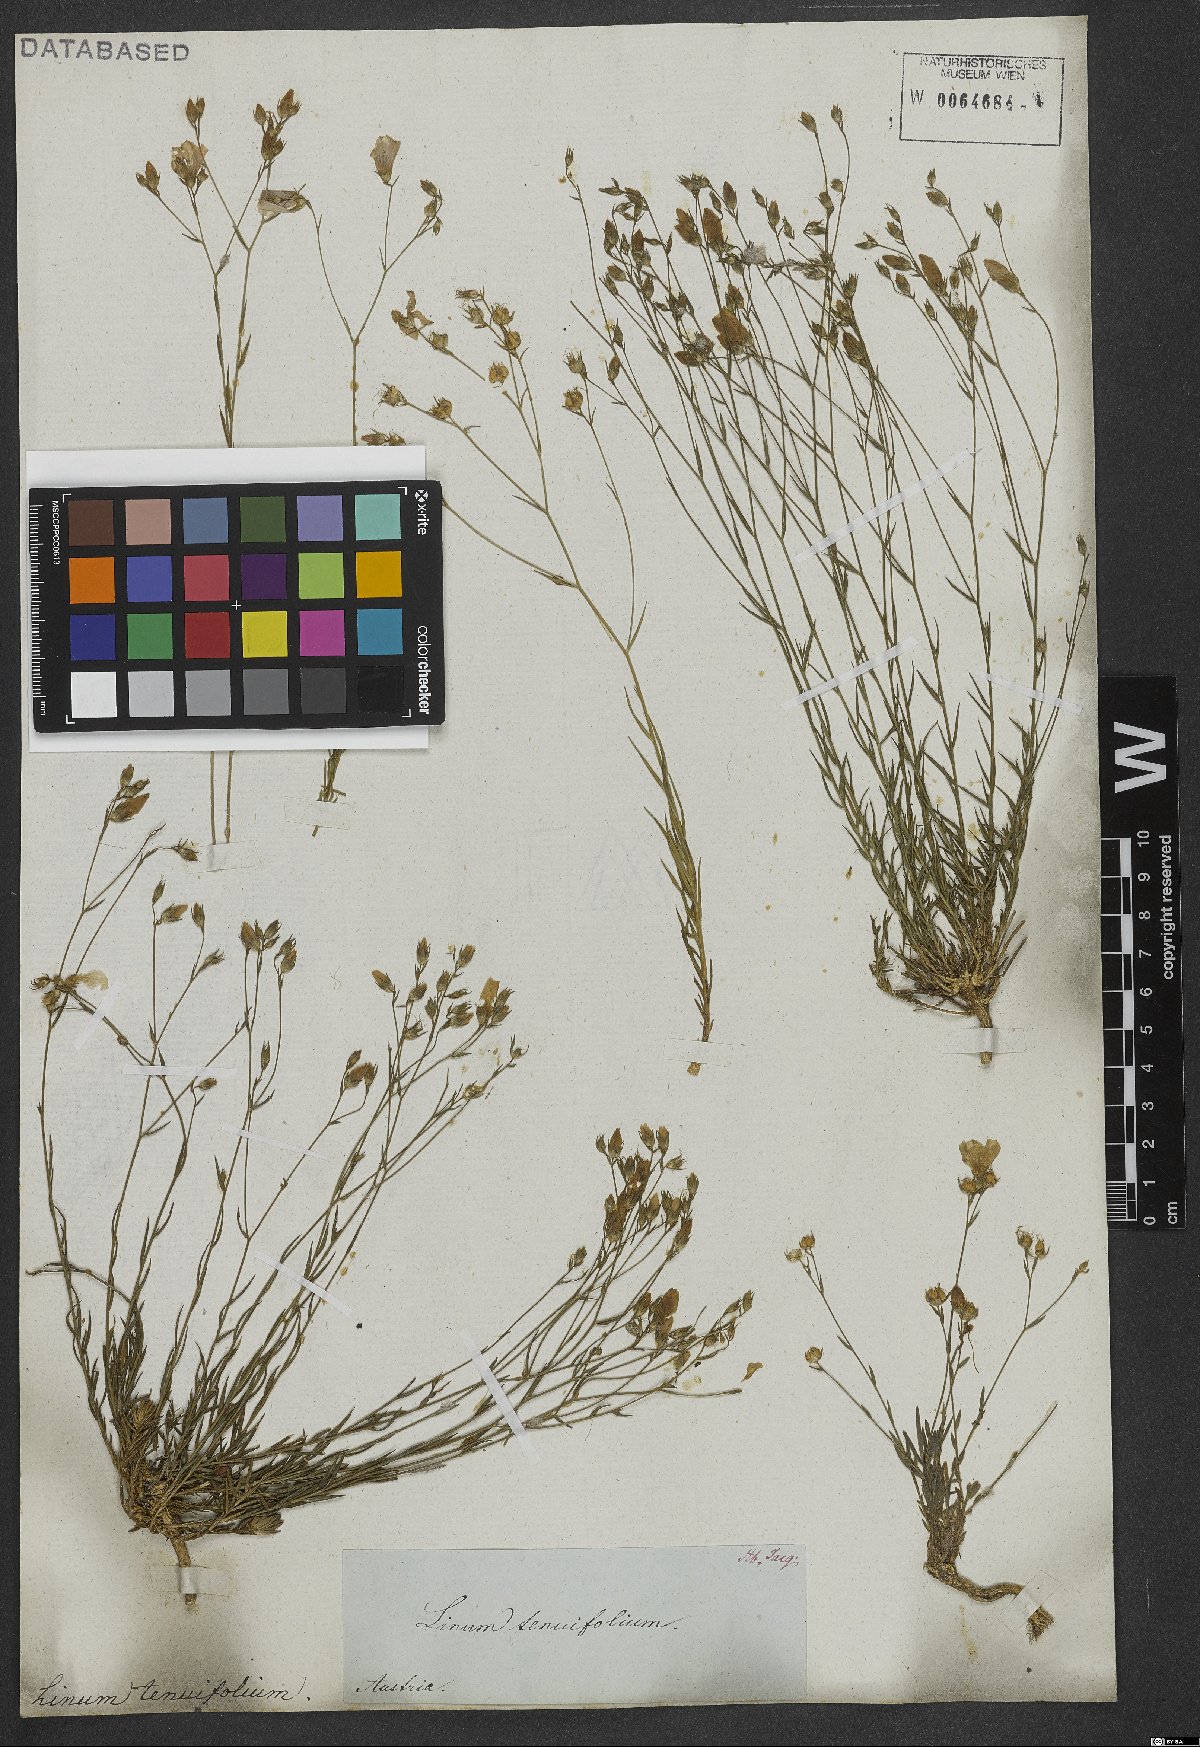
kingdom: Plantae
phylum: Tracheophyta
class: Magnoliopsida
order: Malpighiales
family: Linaceae
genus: Linum
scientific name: Linum tenuifolium
